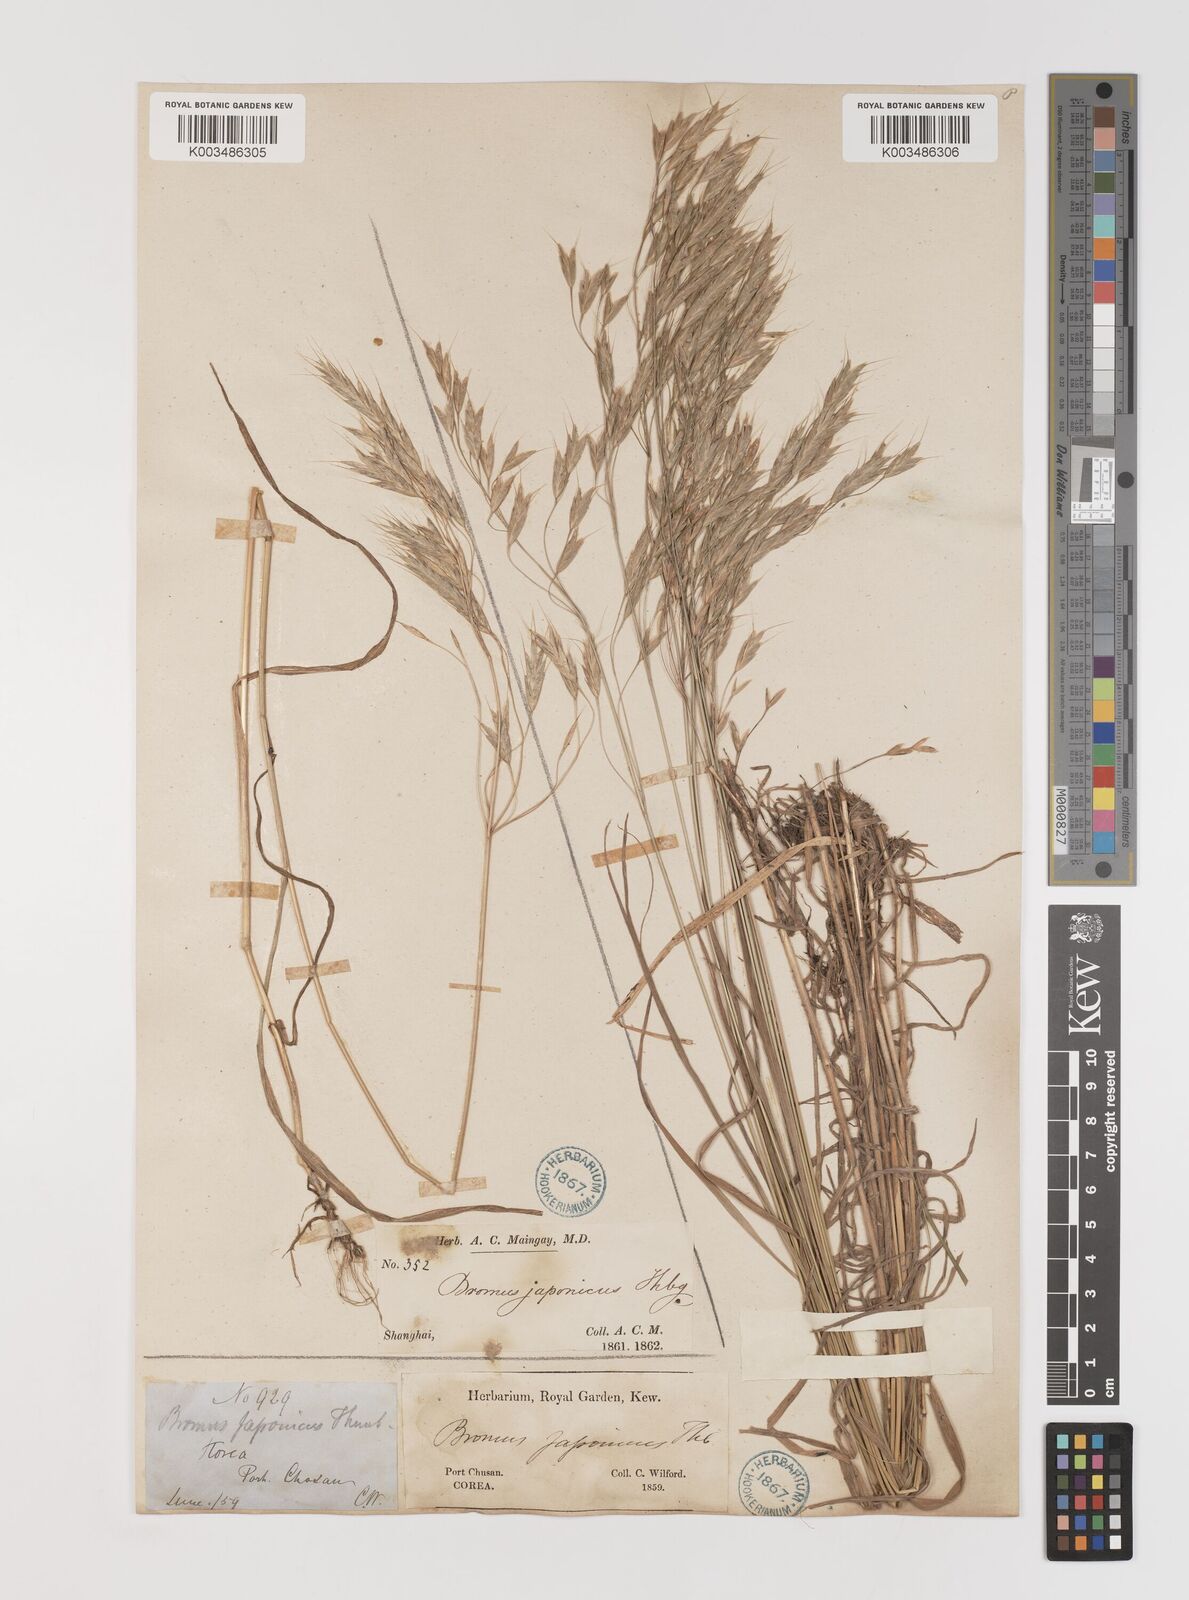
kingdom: Plantae
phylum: Tracheophyta
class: Liliopsida
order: Poales
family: Poaceae
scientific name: Poaceae
